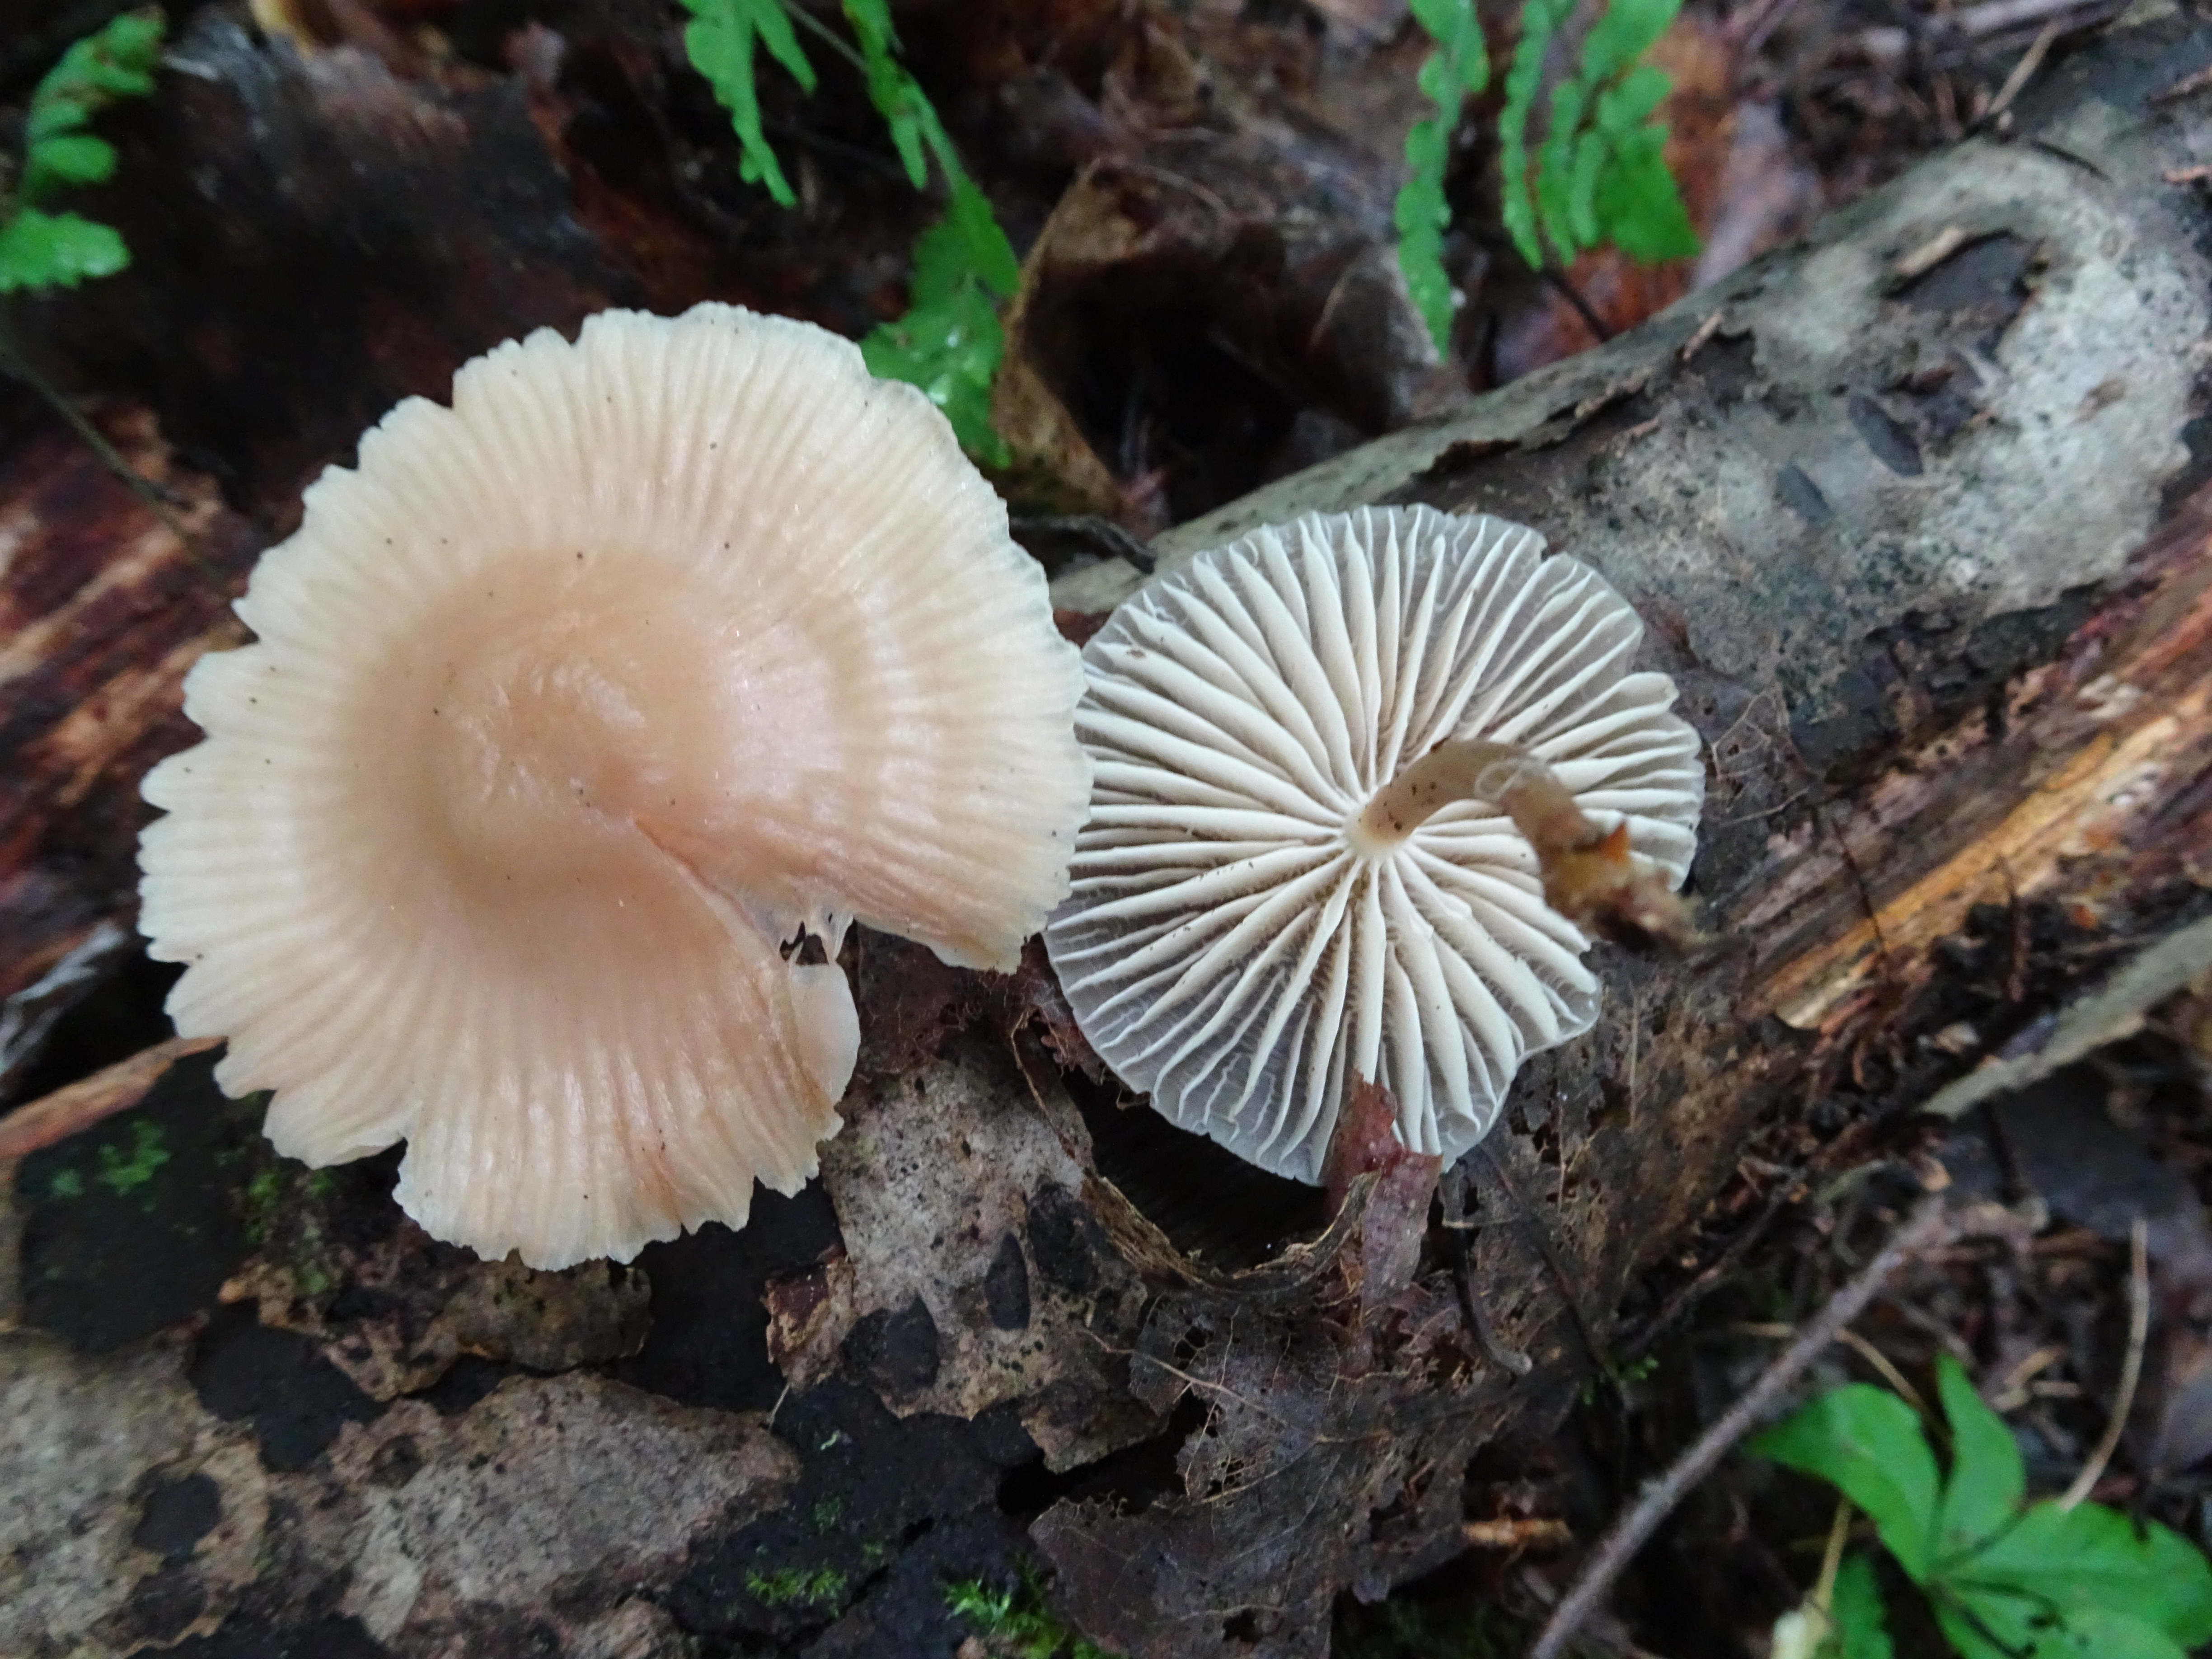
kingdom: Fungi
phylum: Basidiomycota
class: Agaricomycetes
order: Agaricales
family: Mycenaceae
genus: Mycena
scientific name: Mycena galericulata
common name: Bonnet mycena
